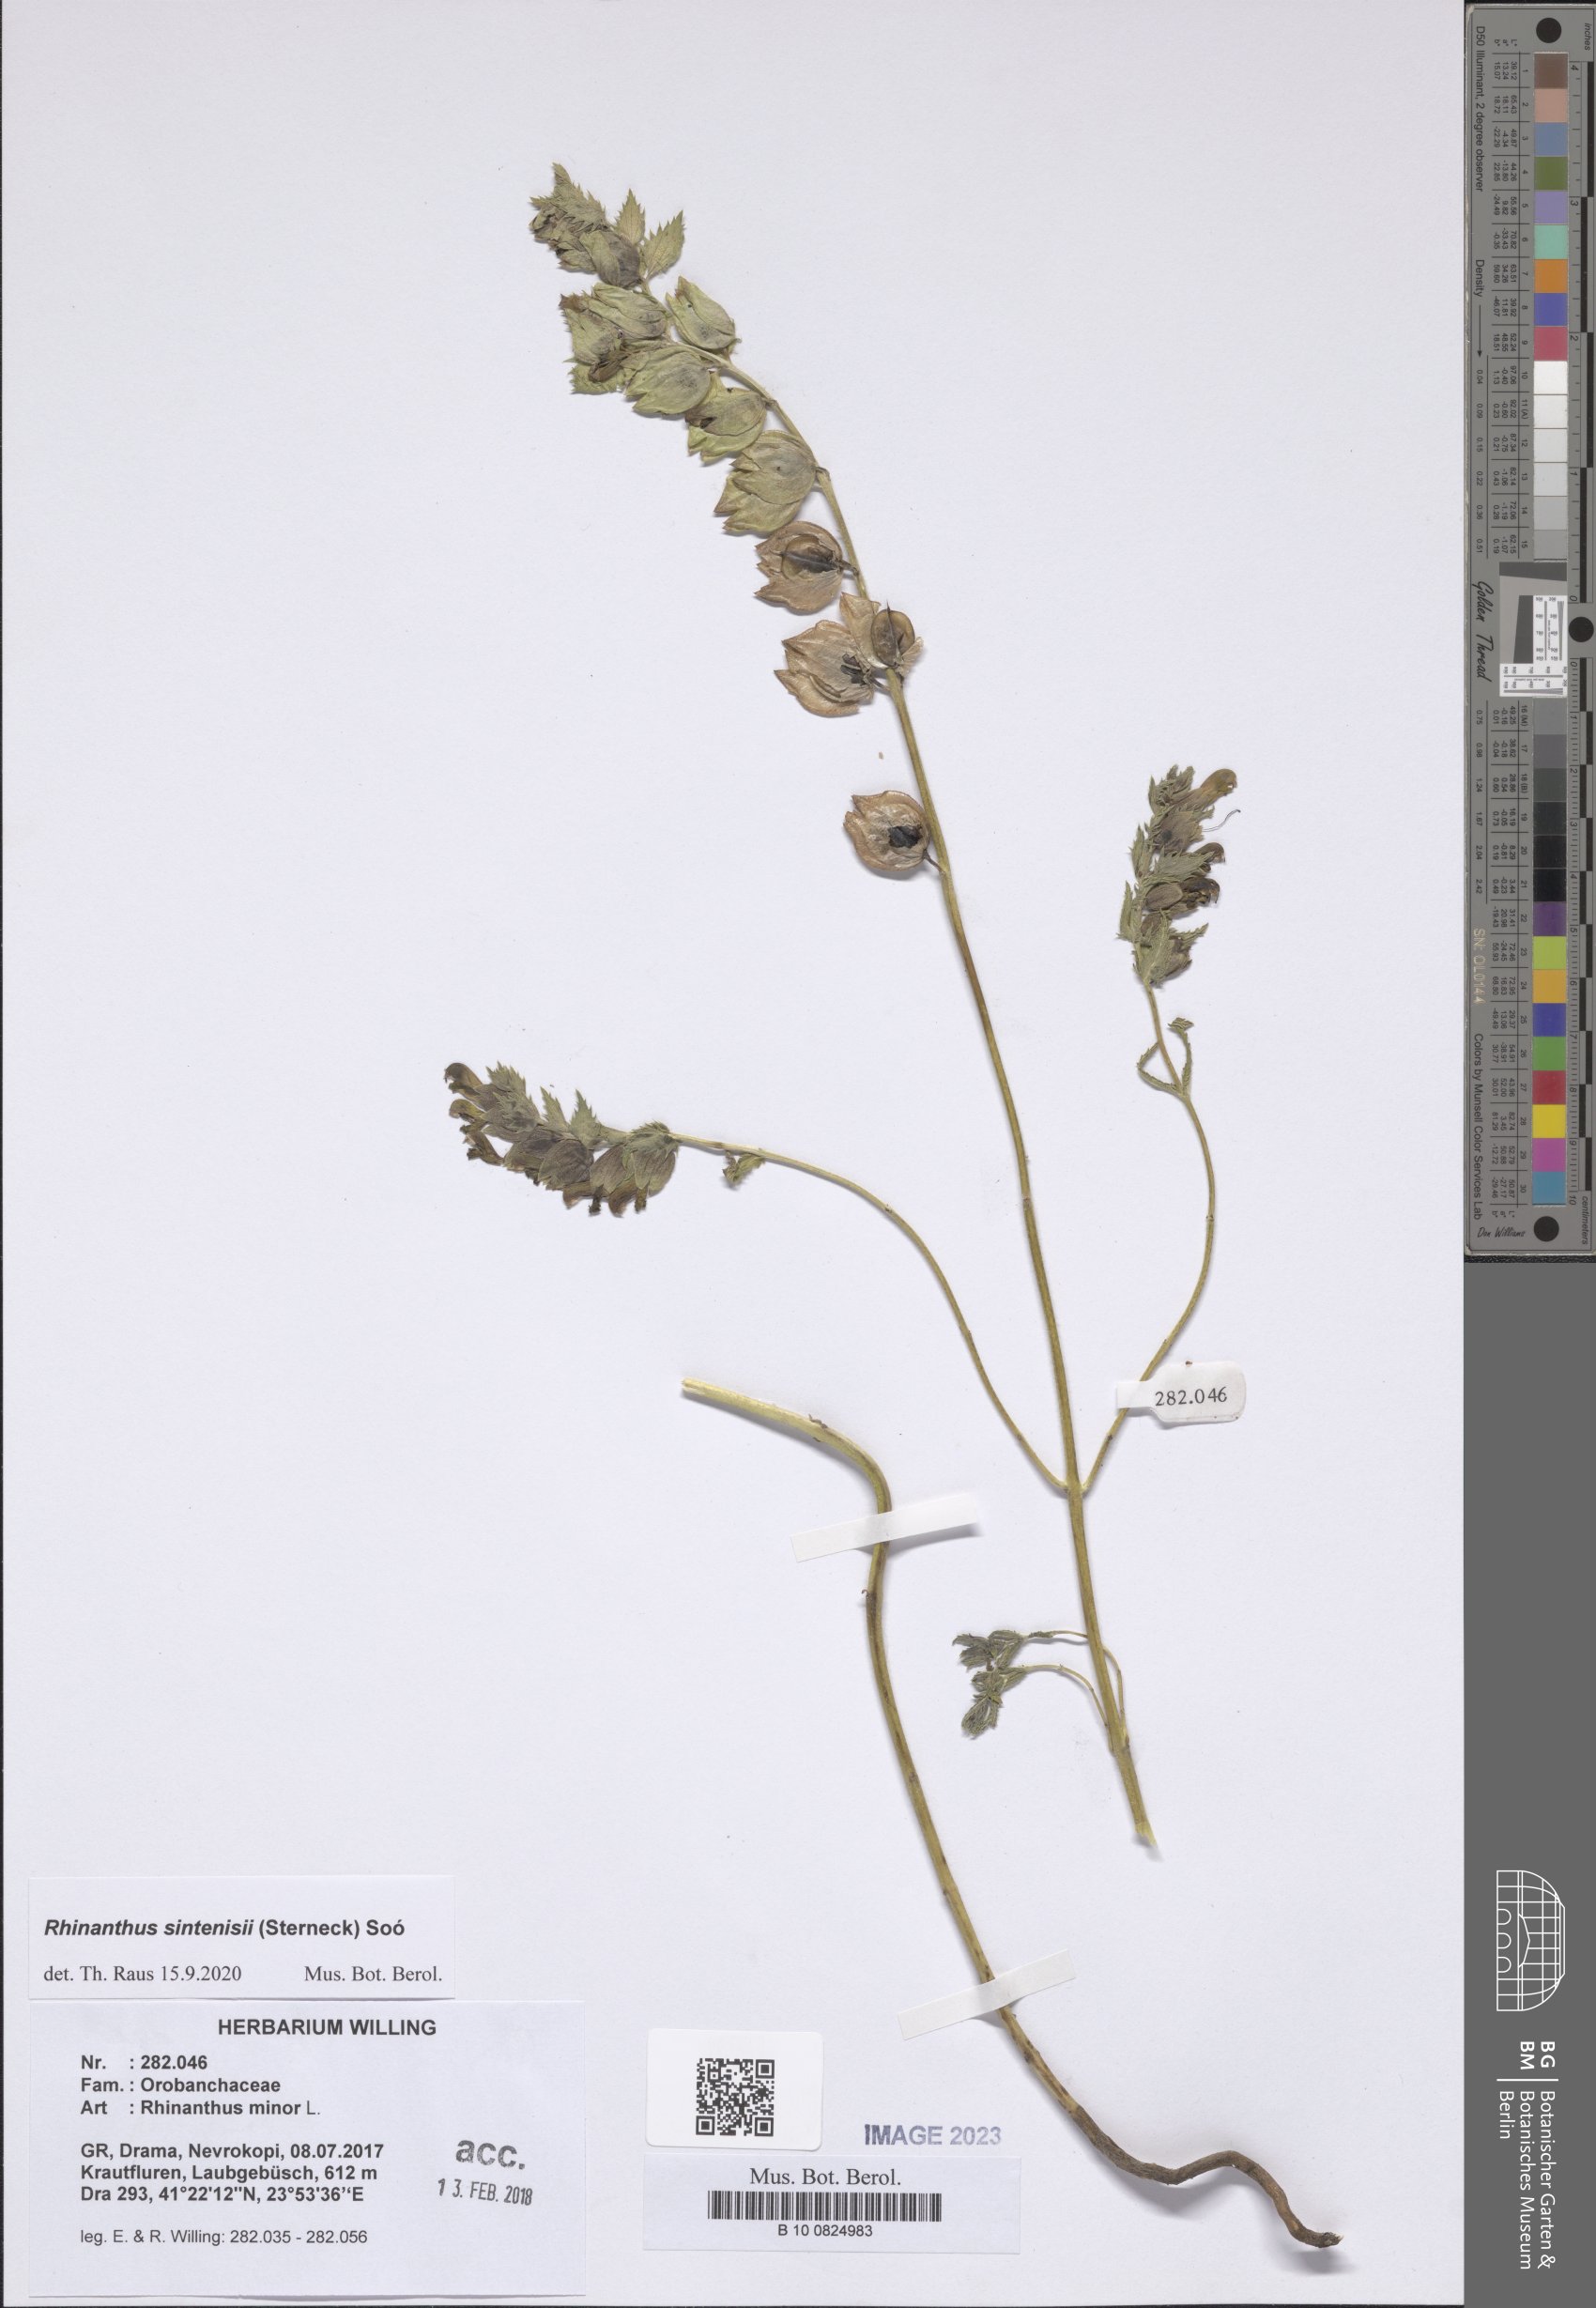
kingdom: Plantae
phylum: Tracheophyta
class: Magnoliopsida
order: Lamiales
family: Orobanchaceae
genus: Rhinanthus
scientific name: Rhinanthus sintenisii
